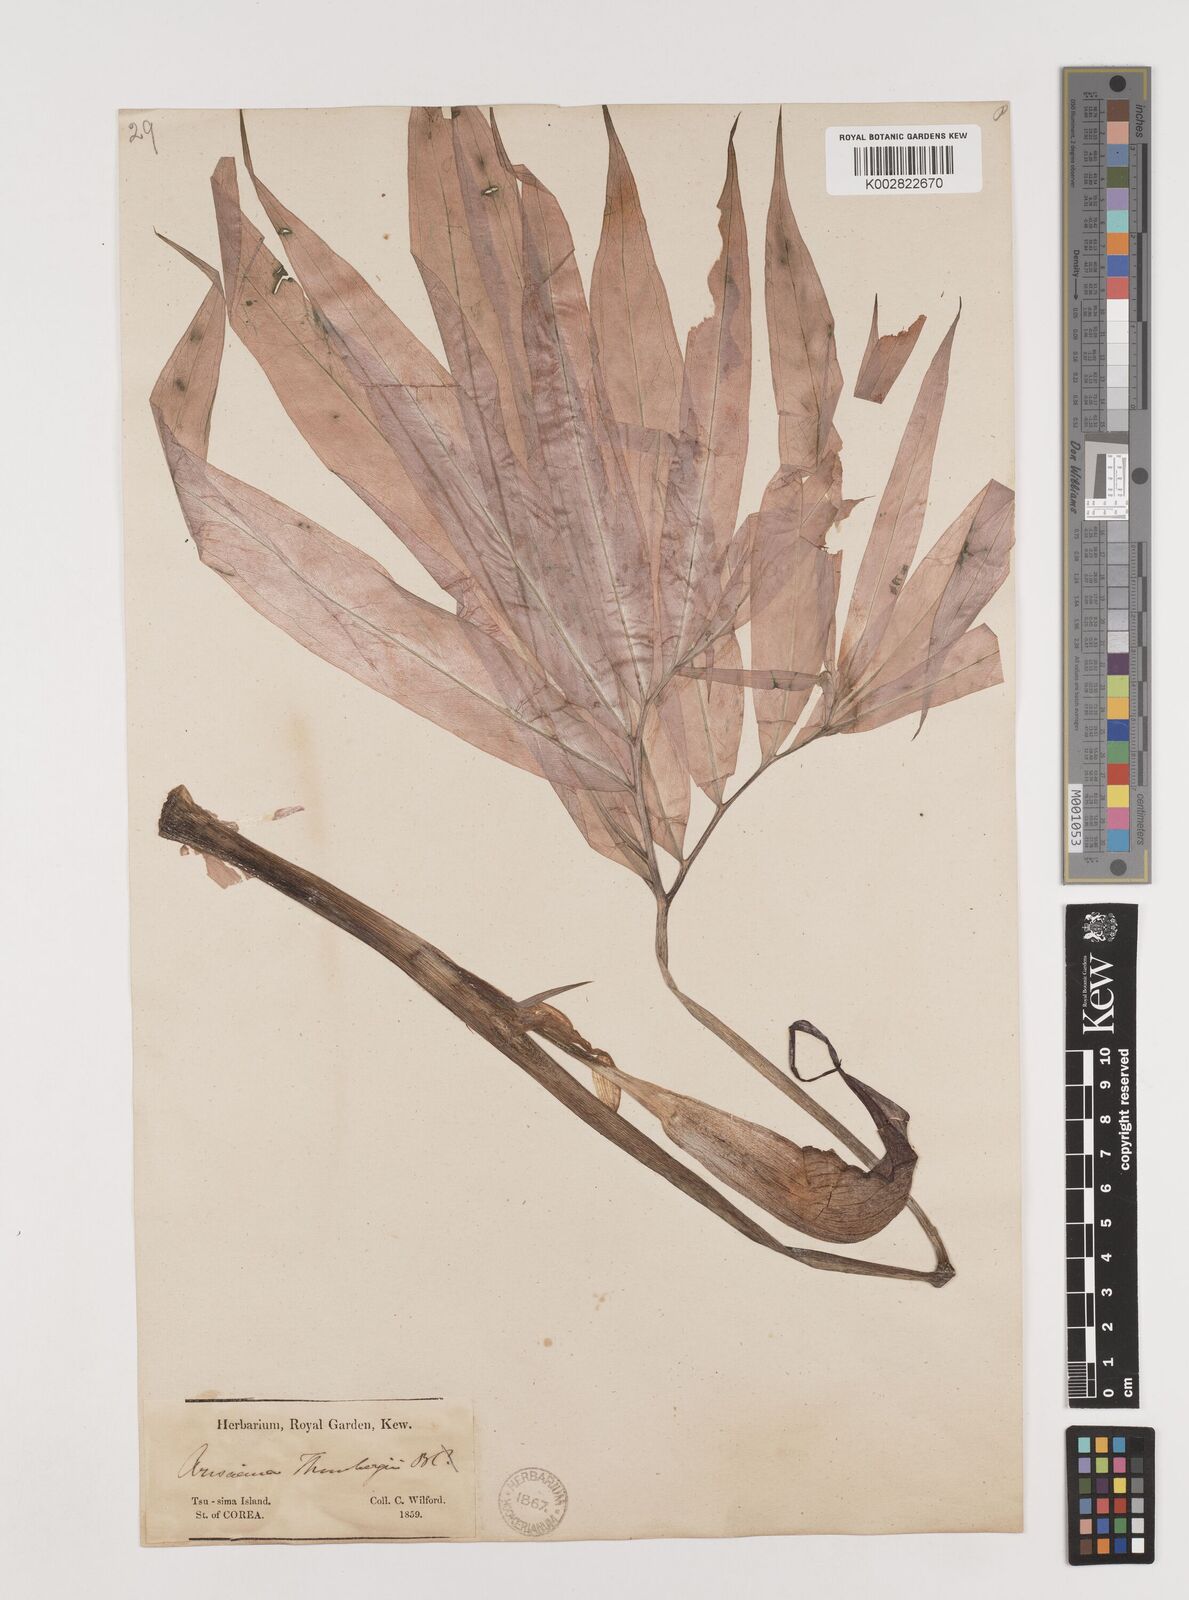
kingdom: Plantae
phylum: Tracheophyta
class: Liliopsida
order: Alismatales
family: Araceae
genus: Arisaema
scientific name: Arisaema thunbergii
